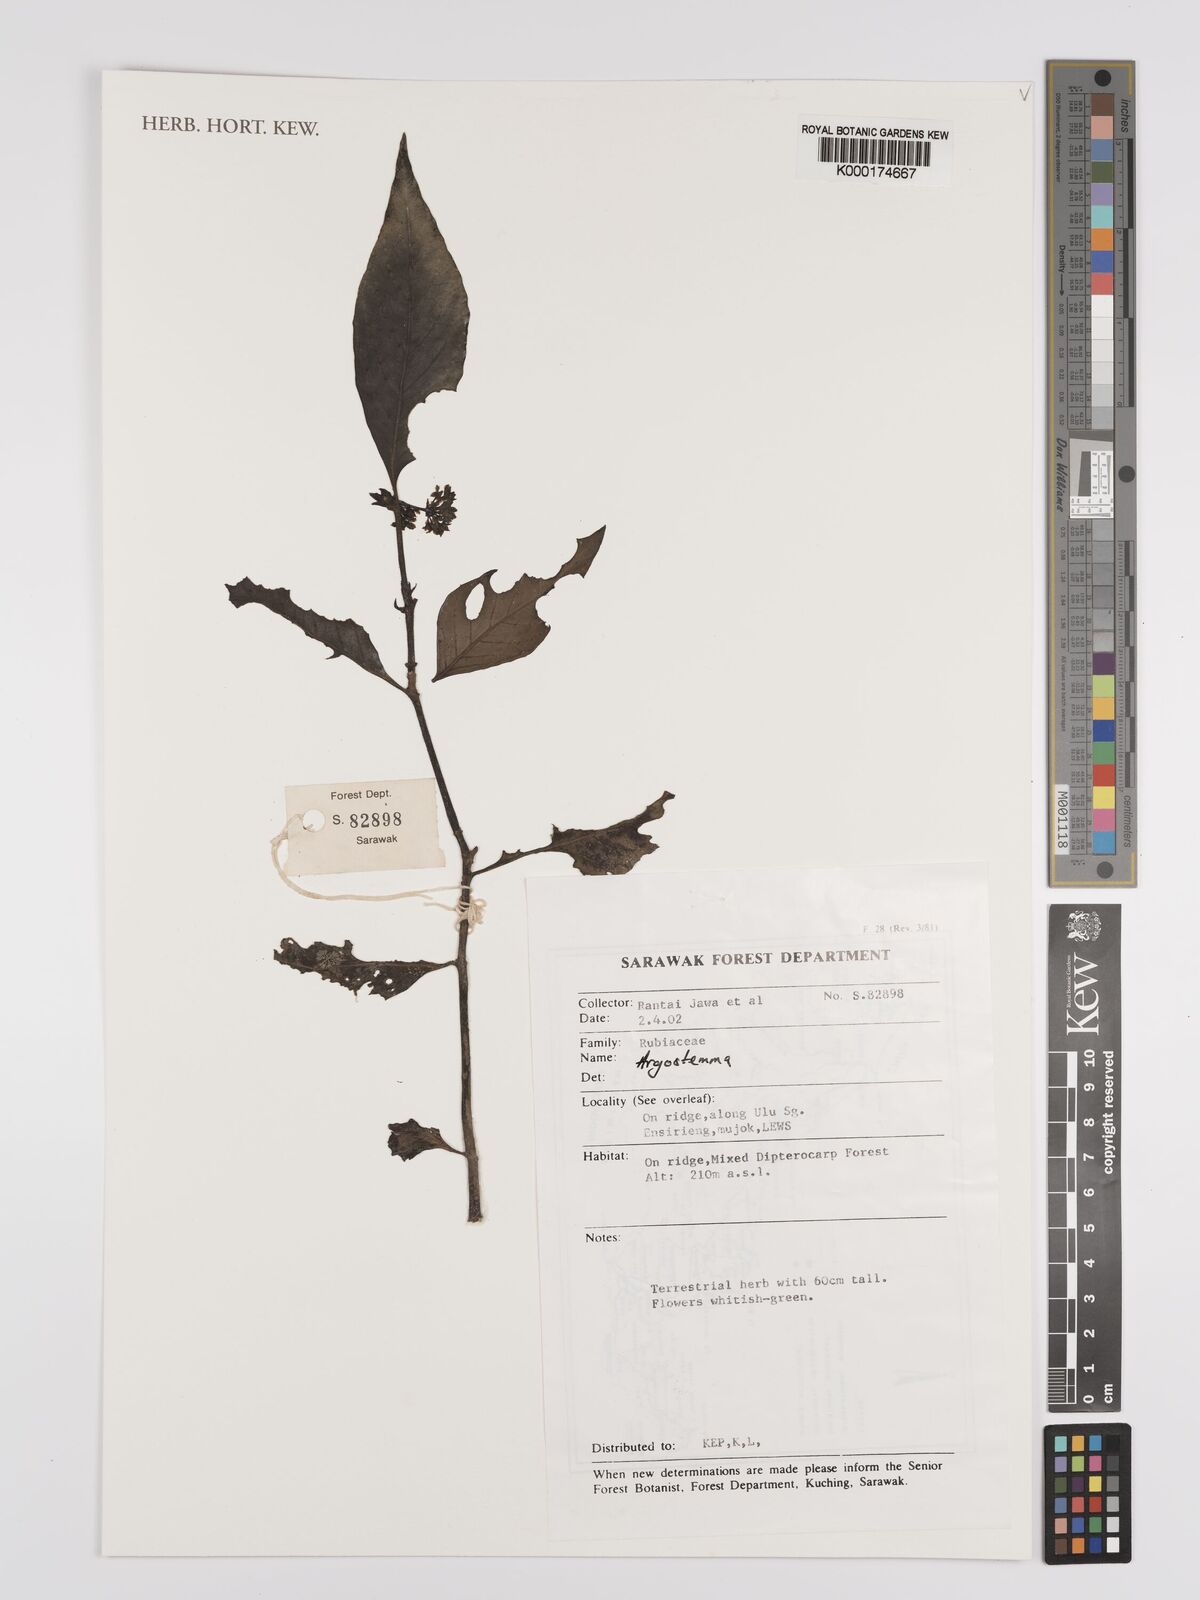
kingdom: Plantae
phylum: Tracheophyta
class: Magnoliopsida
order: Gentianales
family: Rubiaceae
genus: Argostemma
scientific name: Argostemma
